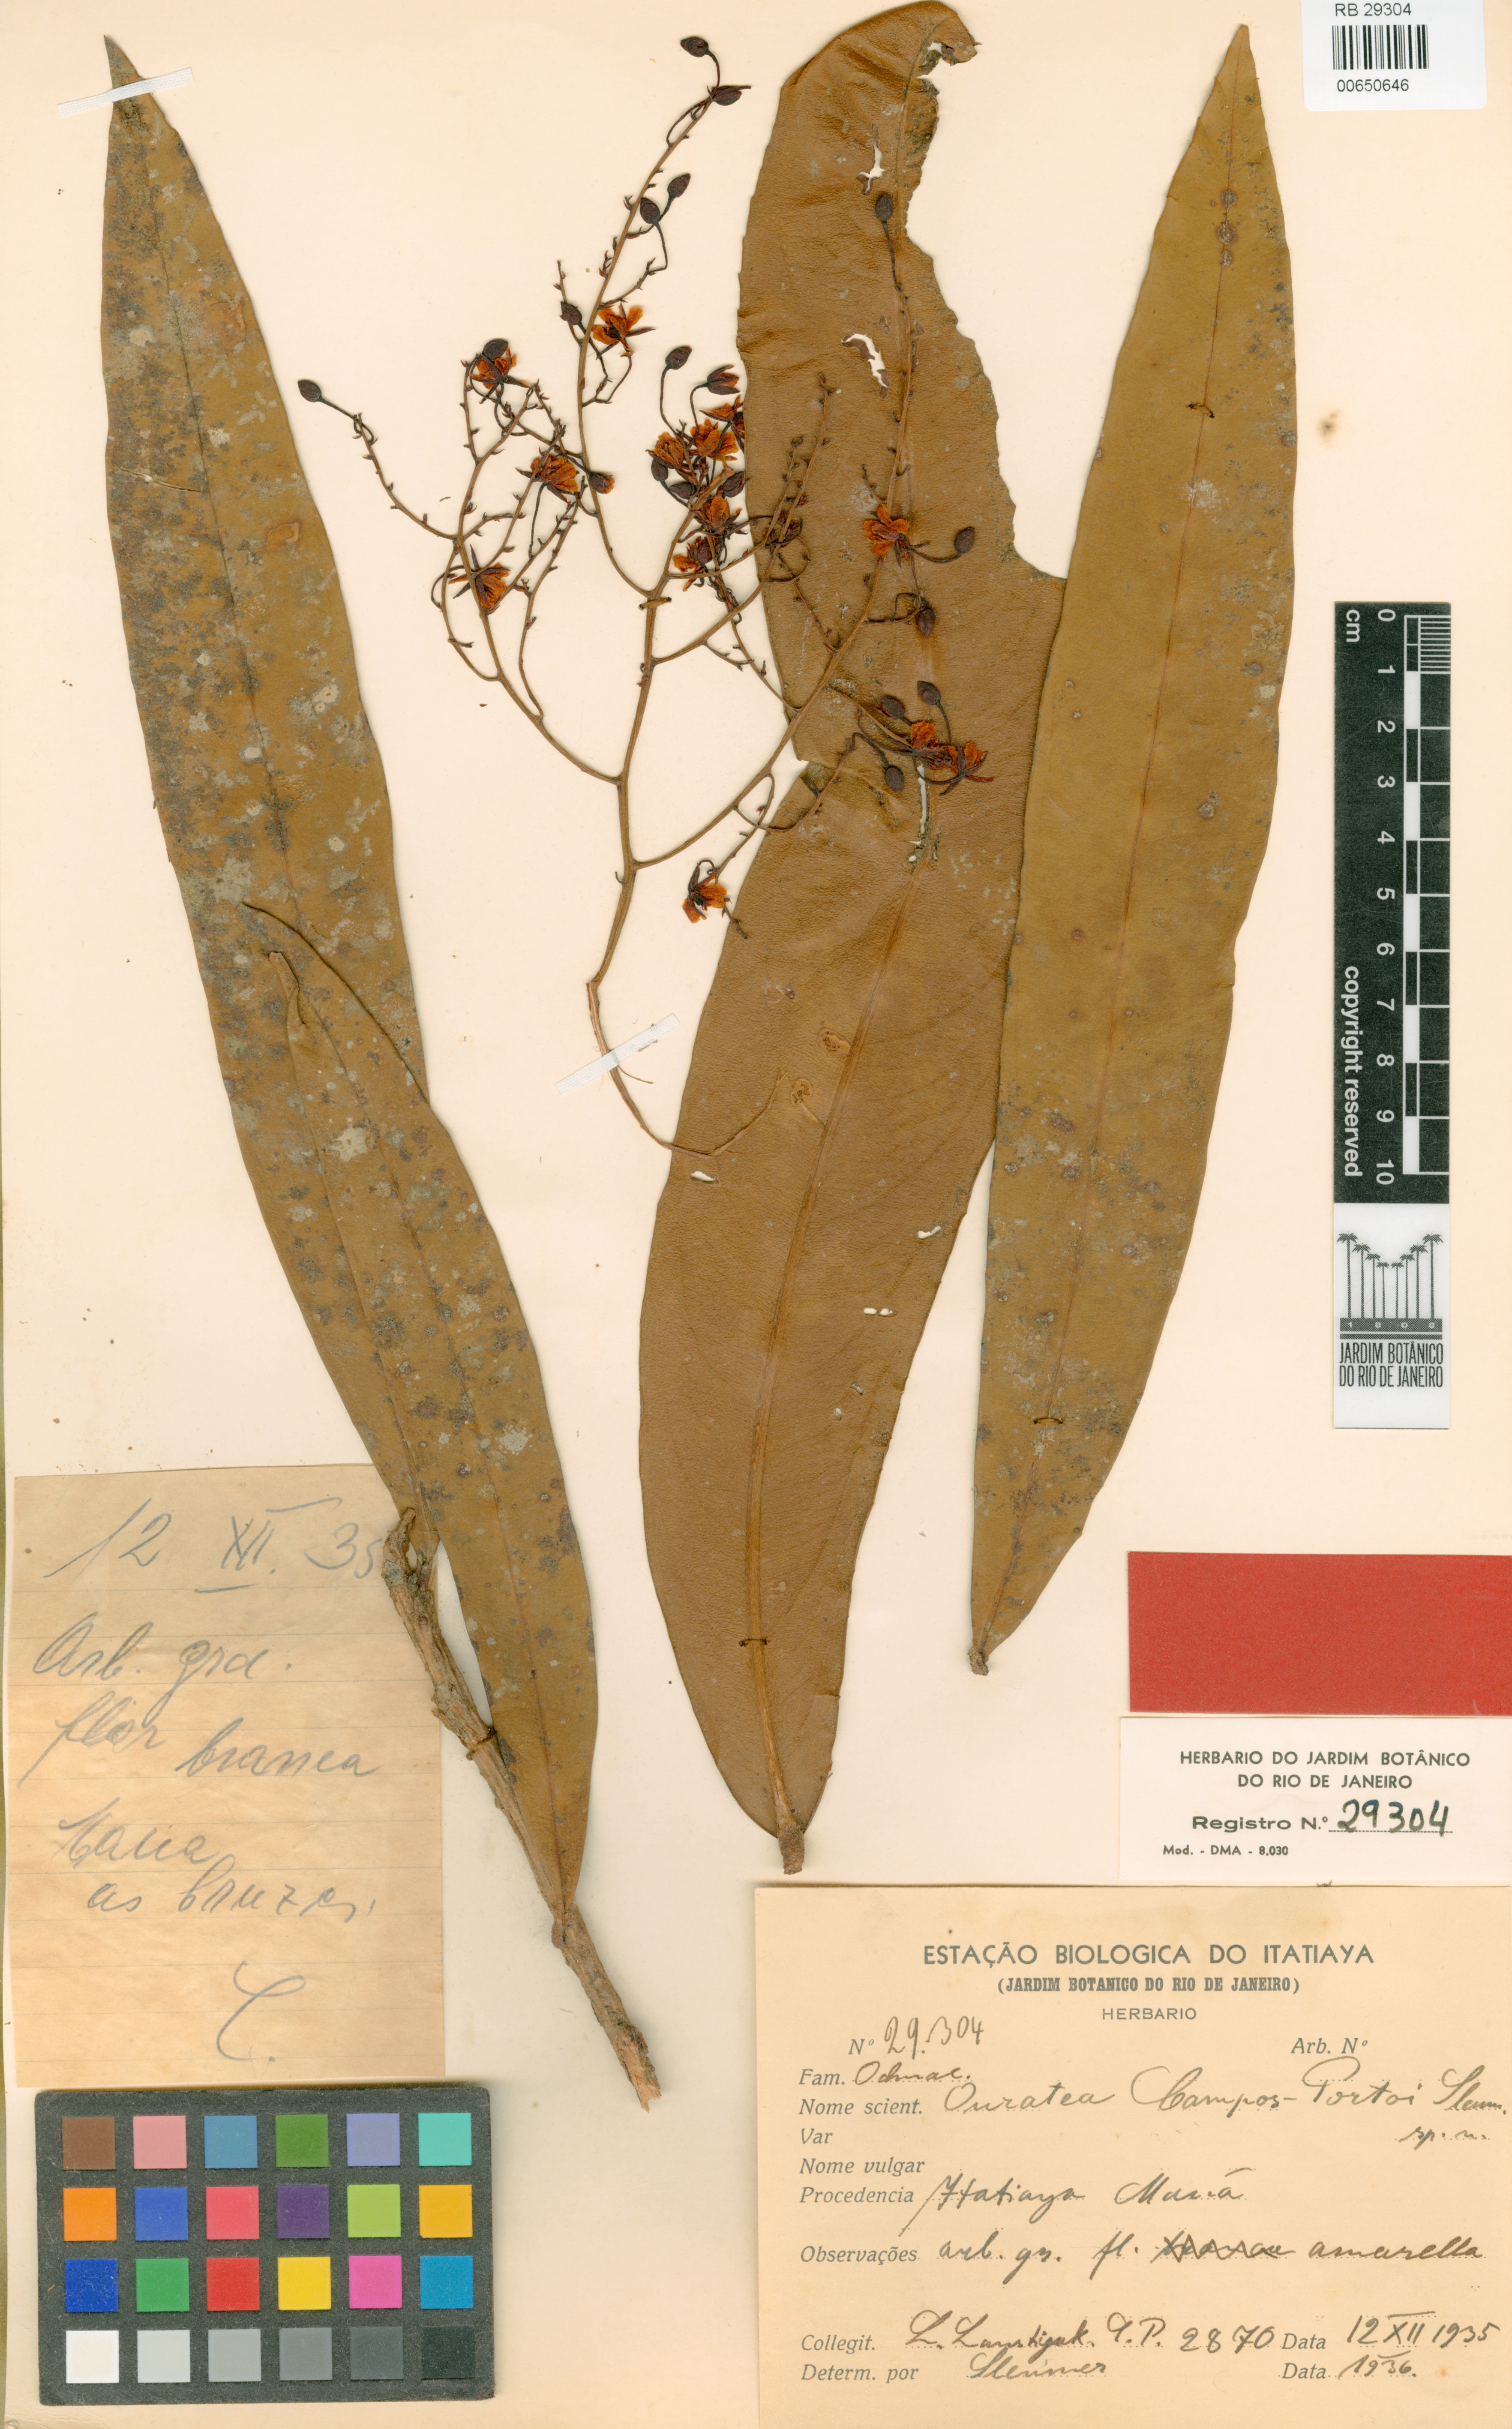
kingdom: Plantae
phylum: Tracheophyta
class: Magnoliopsida
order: Malpighiales
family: Ochnaceae
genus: Ouratea
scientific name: Ouratea campos-portoi
